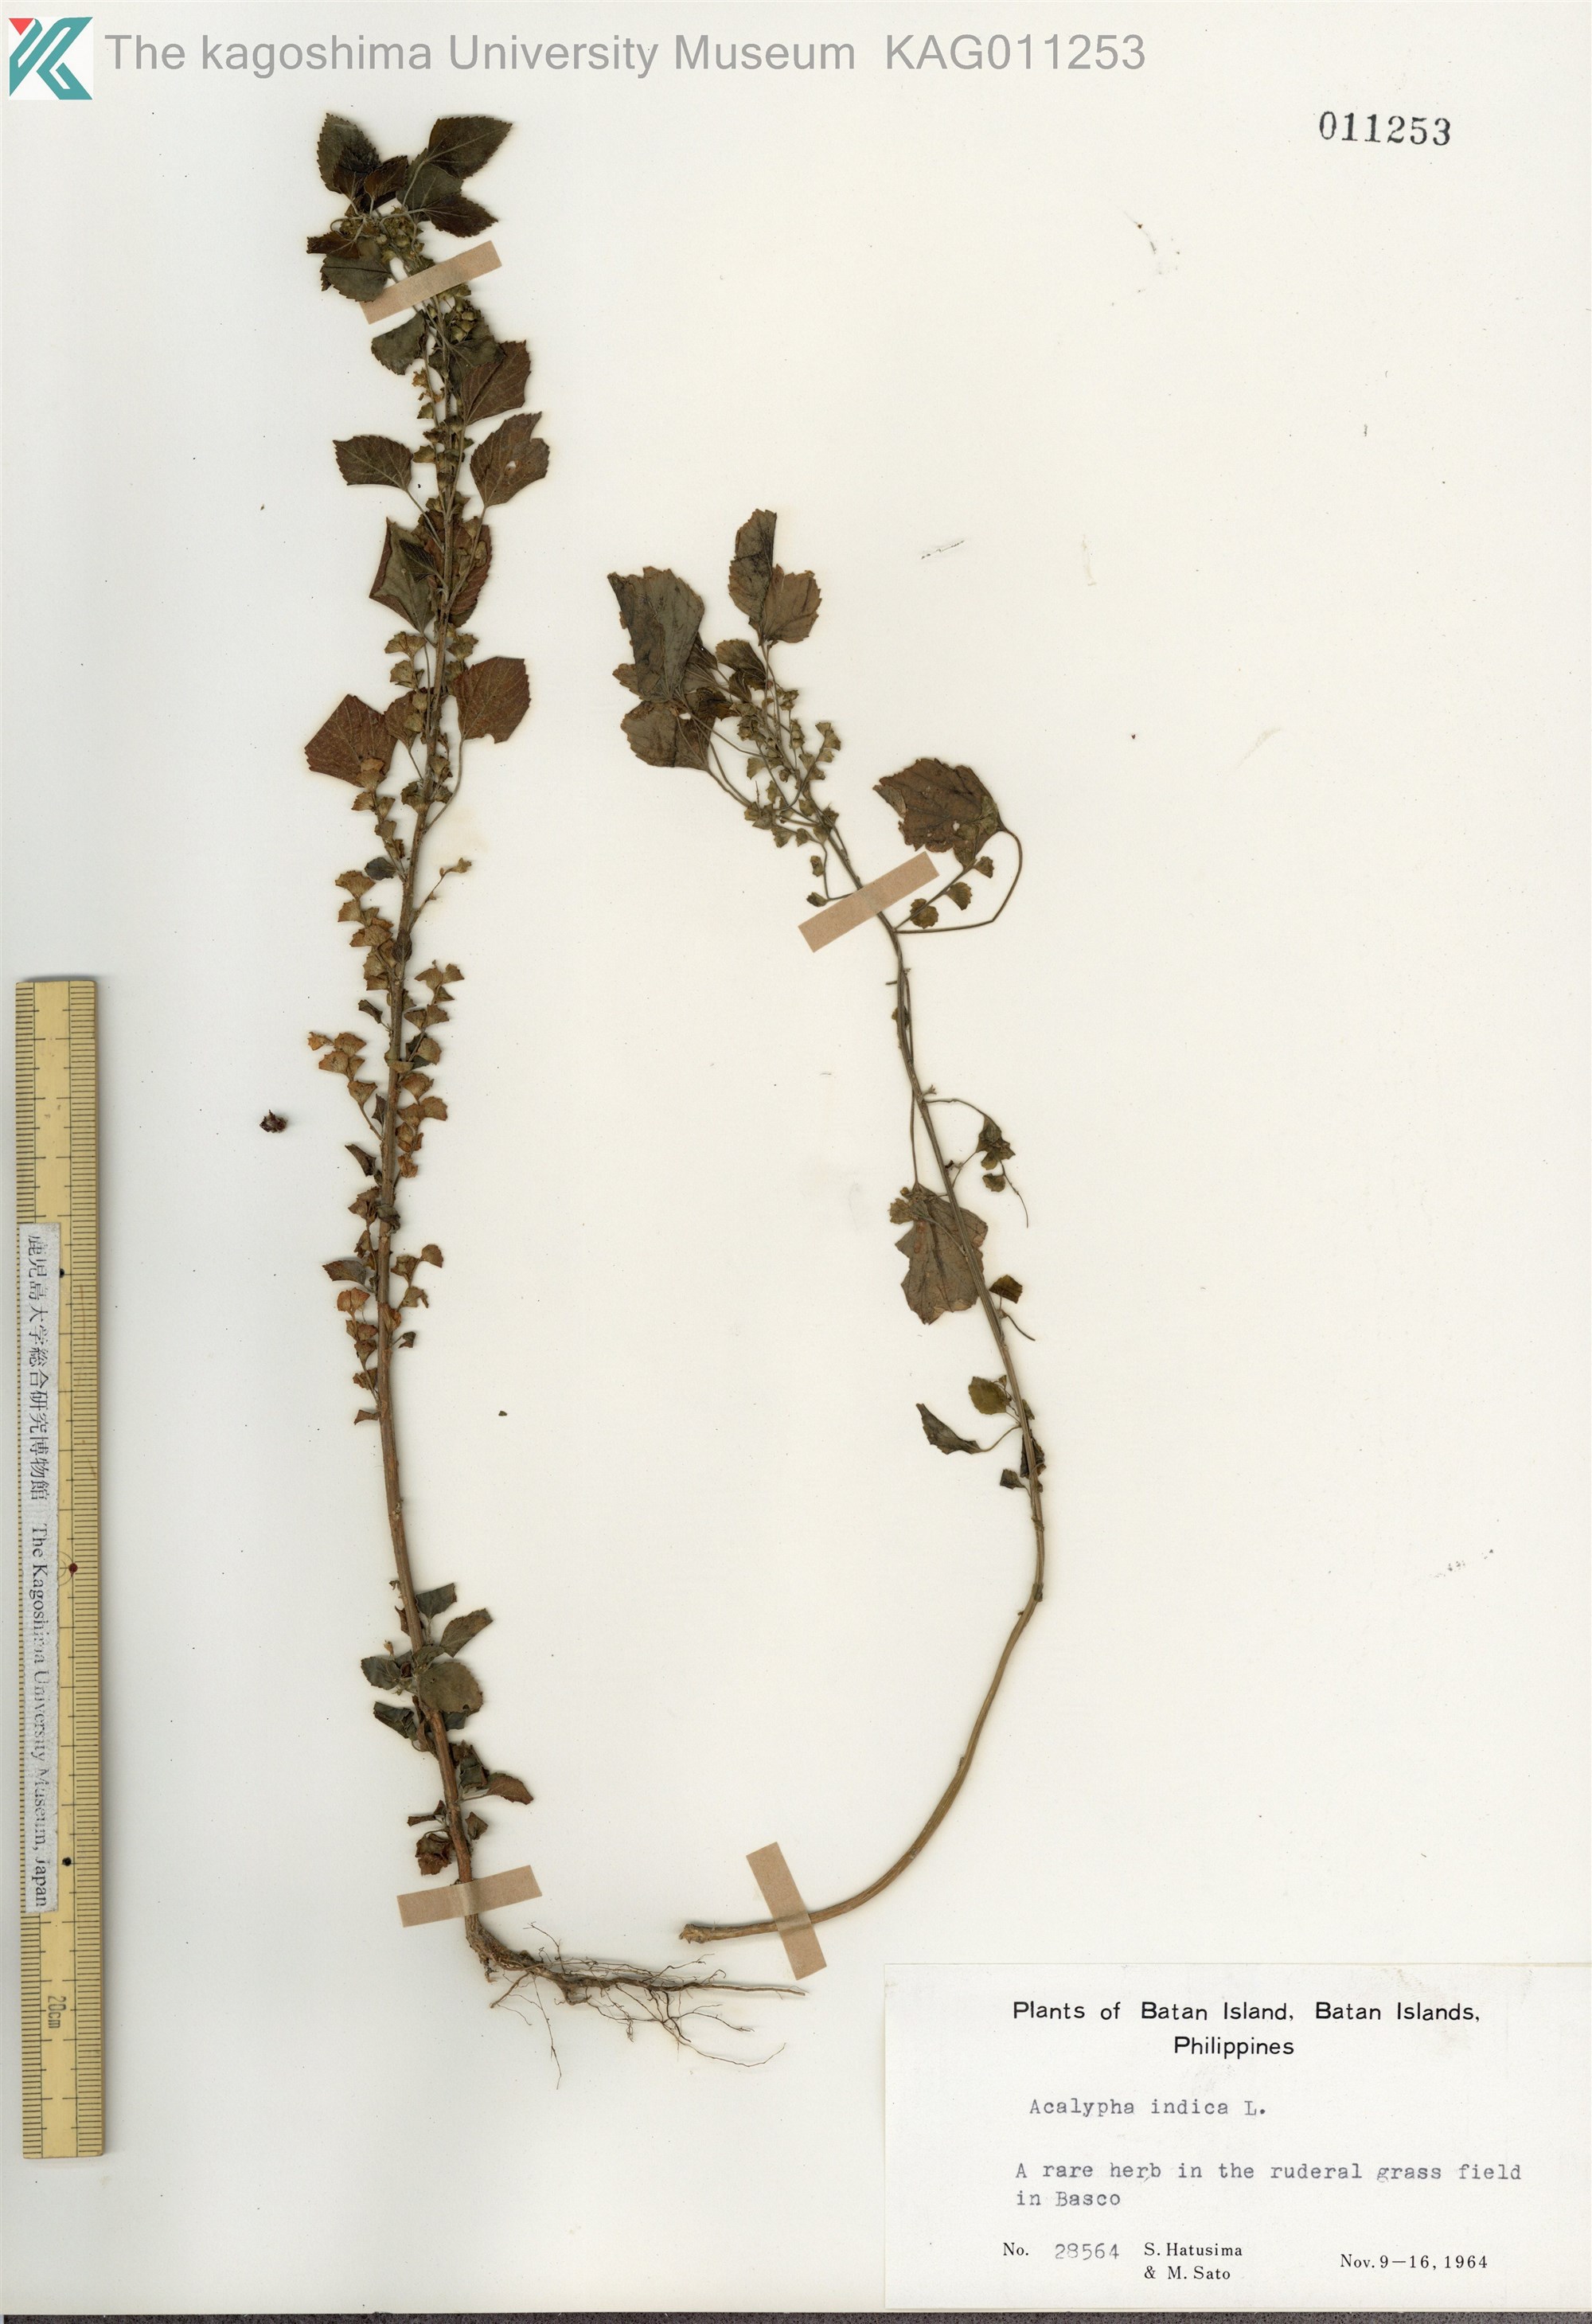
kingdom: Plantae
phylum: Tracheophyta
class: Magnoliopsida
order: Malpighiales
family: Euphorbiaceae
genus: Acalypha
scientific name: Acalypha indica
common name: Indian acalypha
